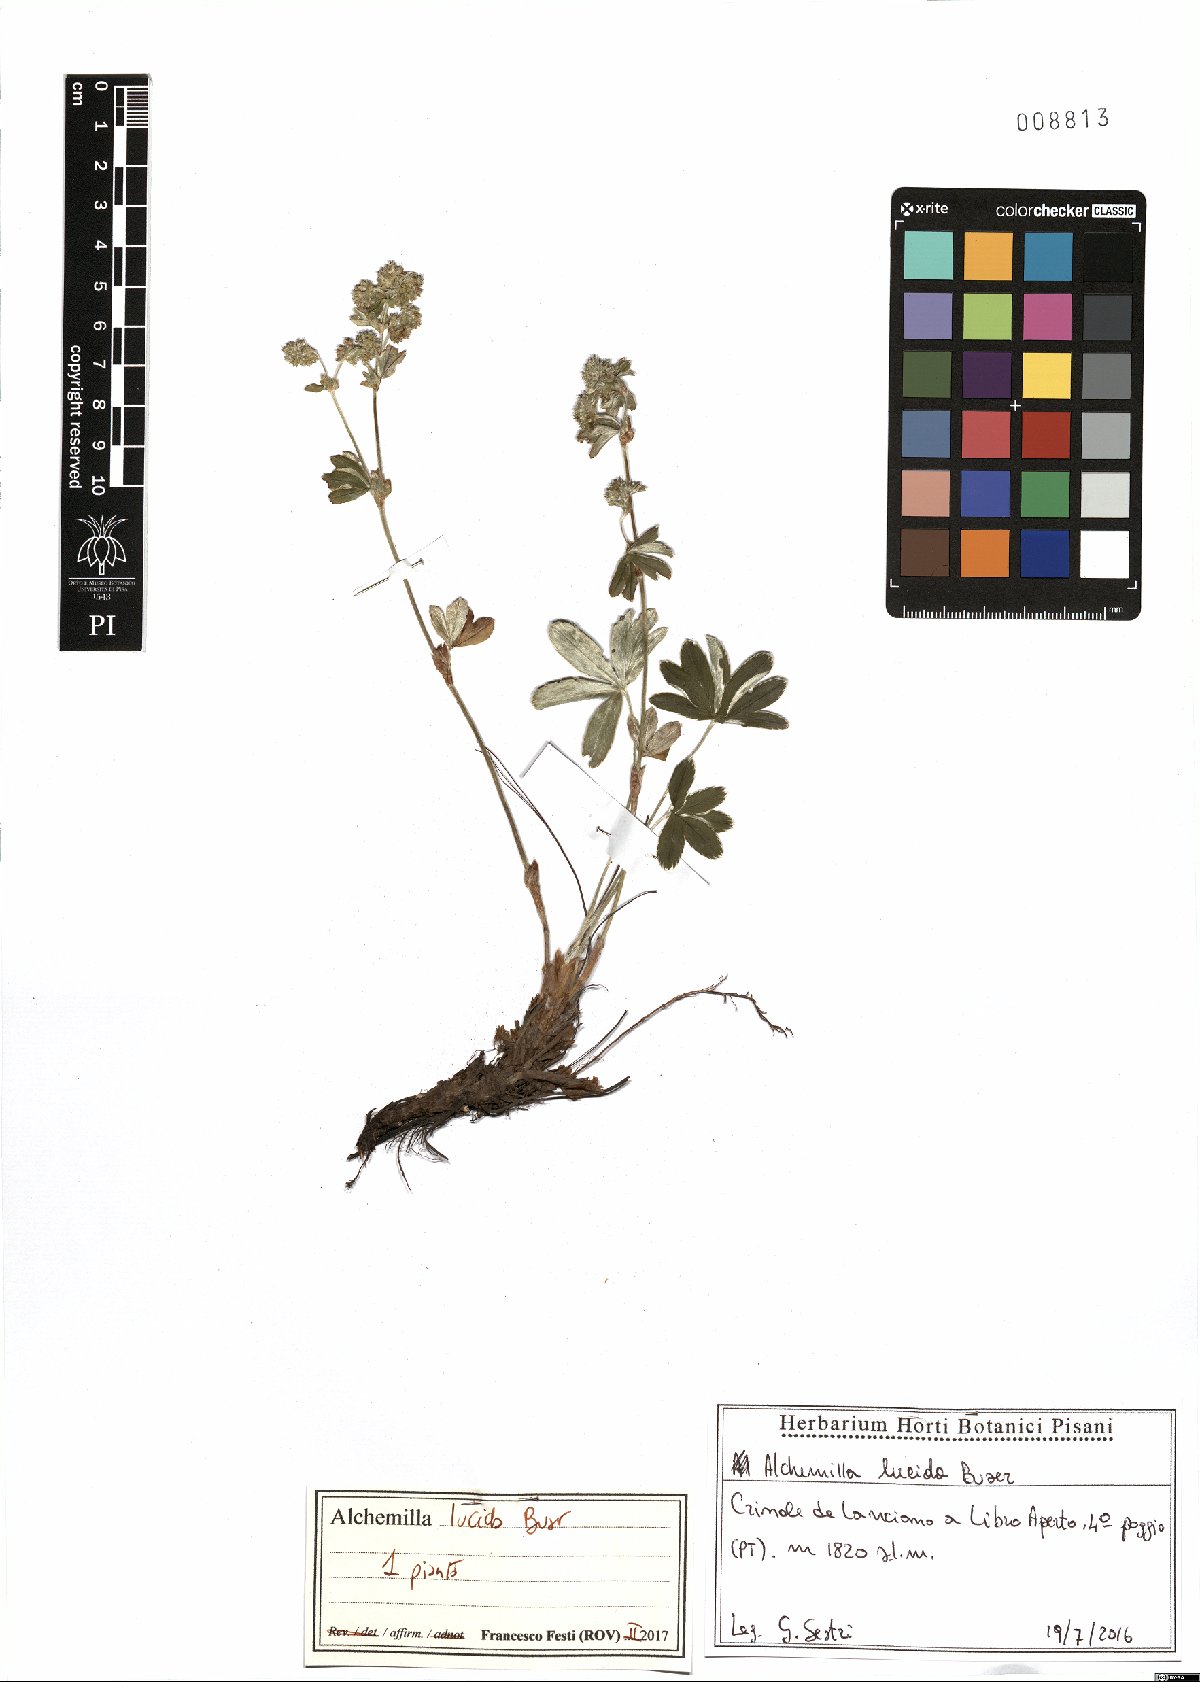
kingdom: Plantae
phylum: Tracheophyta
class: Magnoliopsida
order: Rosales
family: Rosaceae
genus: Alchemilla
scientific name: Alchemilla lucida
